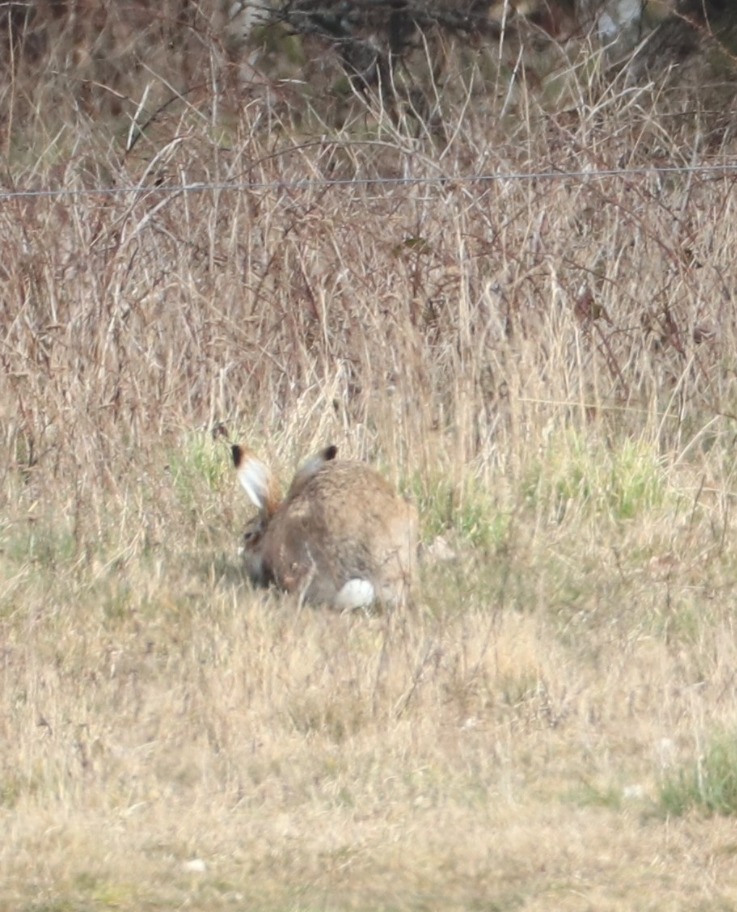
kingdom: Animalia
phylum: Chordata
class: Mammalia
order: Lagomorpha
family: Leporidae
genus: Lepus
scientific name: Lepus europaeus
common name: Hare
